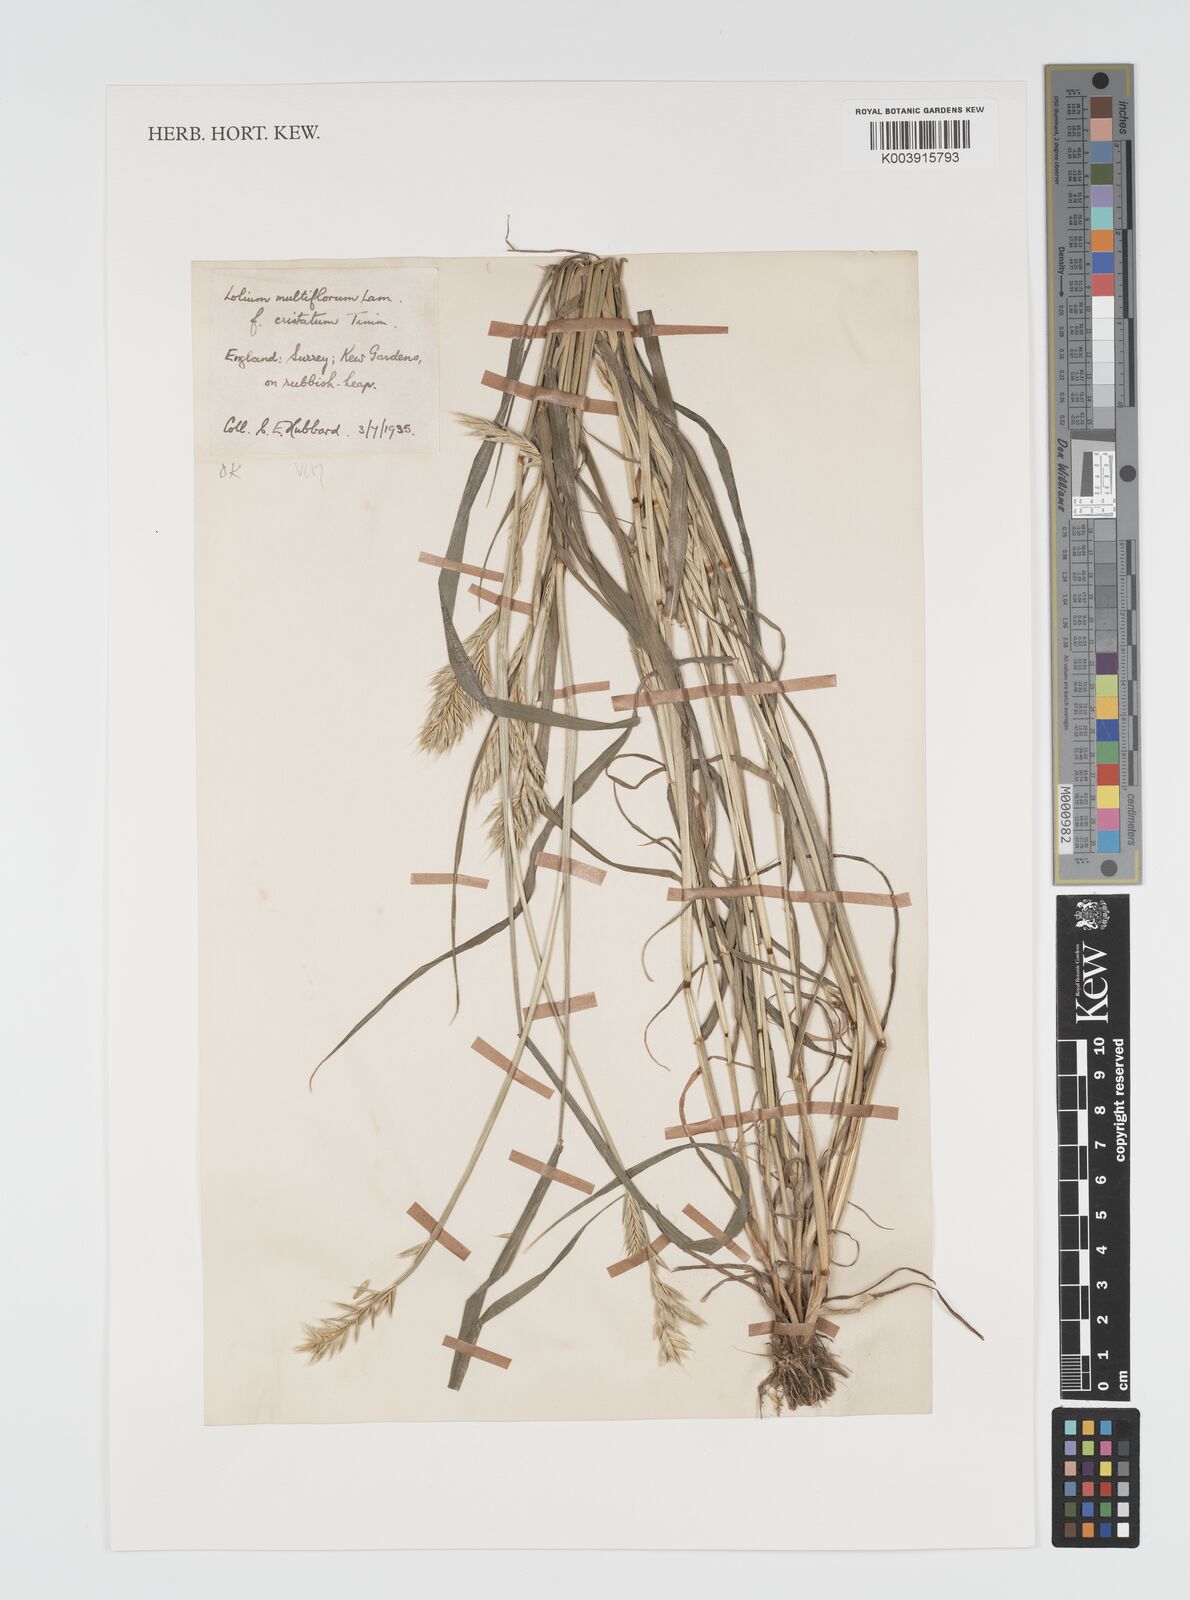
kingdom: Plantae
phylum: Tracheophyta
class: Liliopsida
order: Poales
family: Poaceae
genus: Lolium
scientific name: Lolium multiflorum
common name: Annual ryegrass
